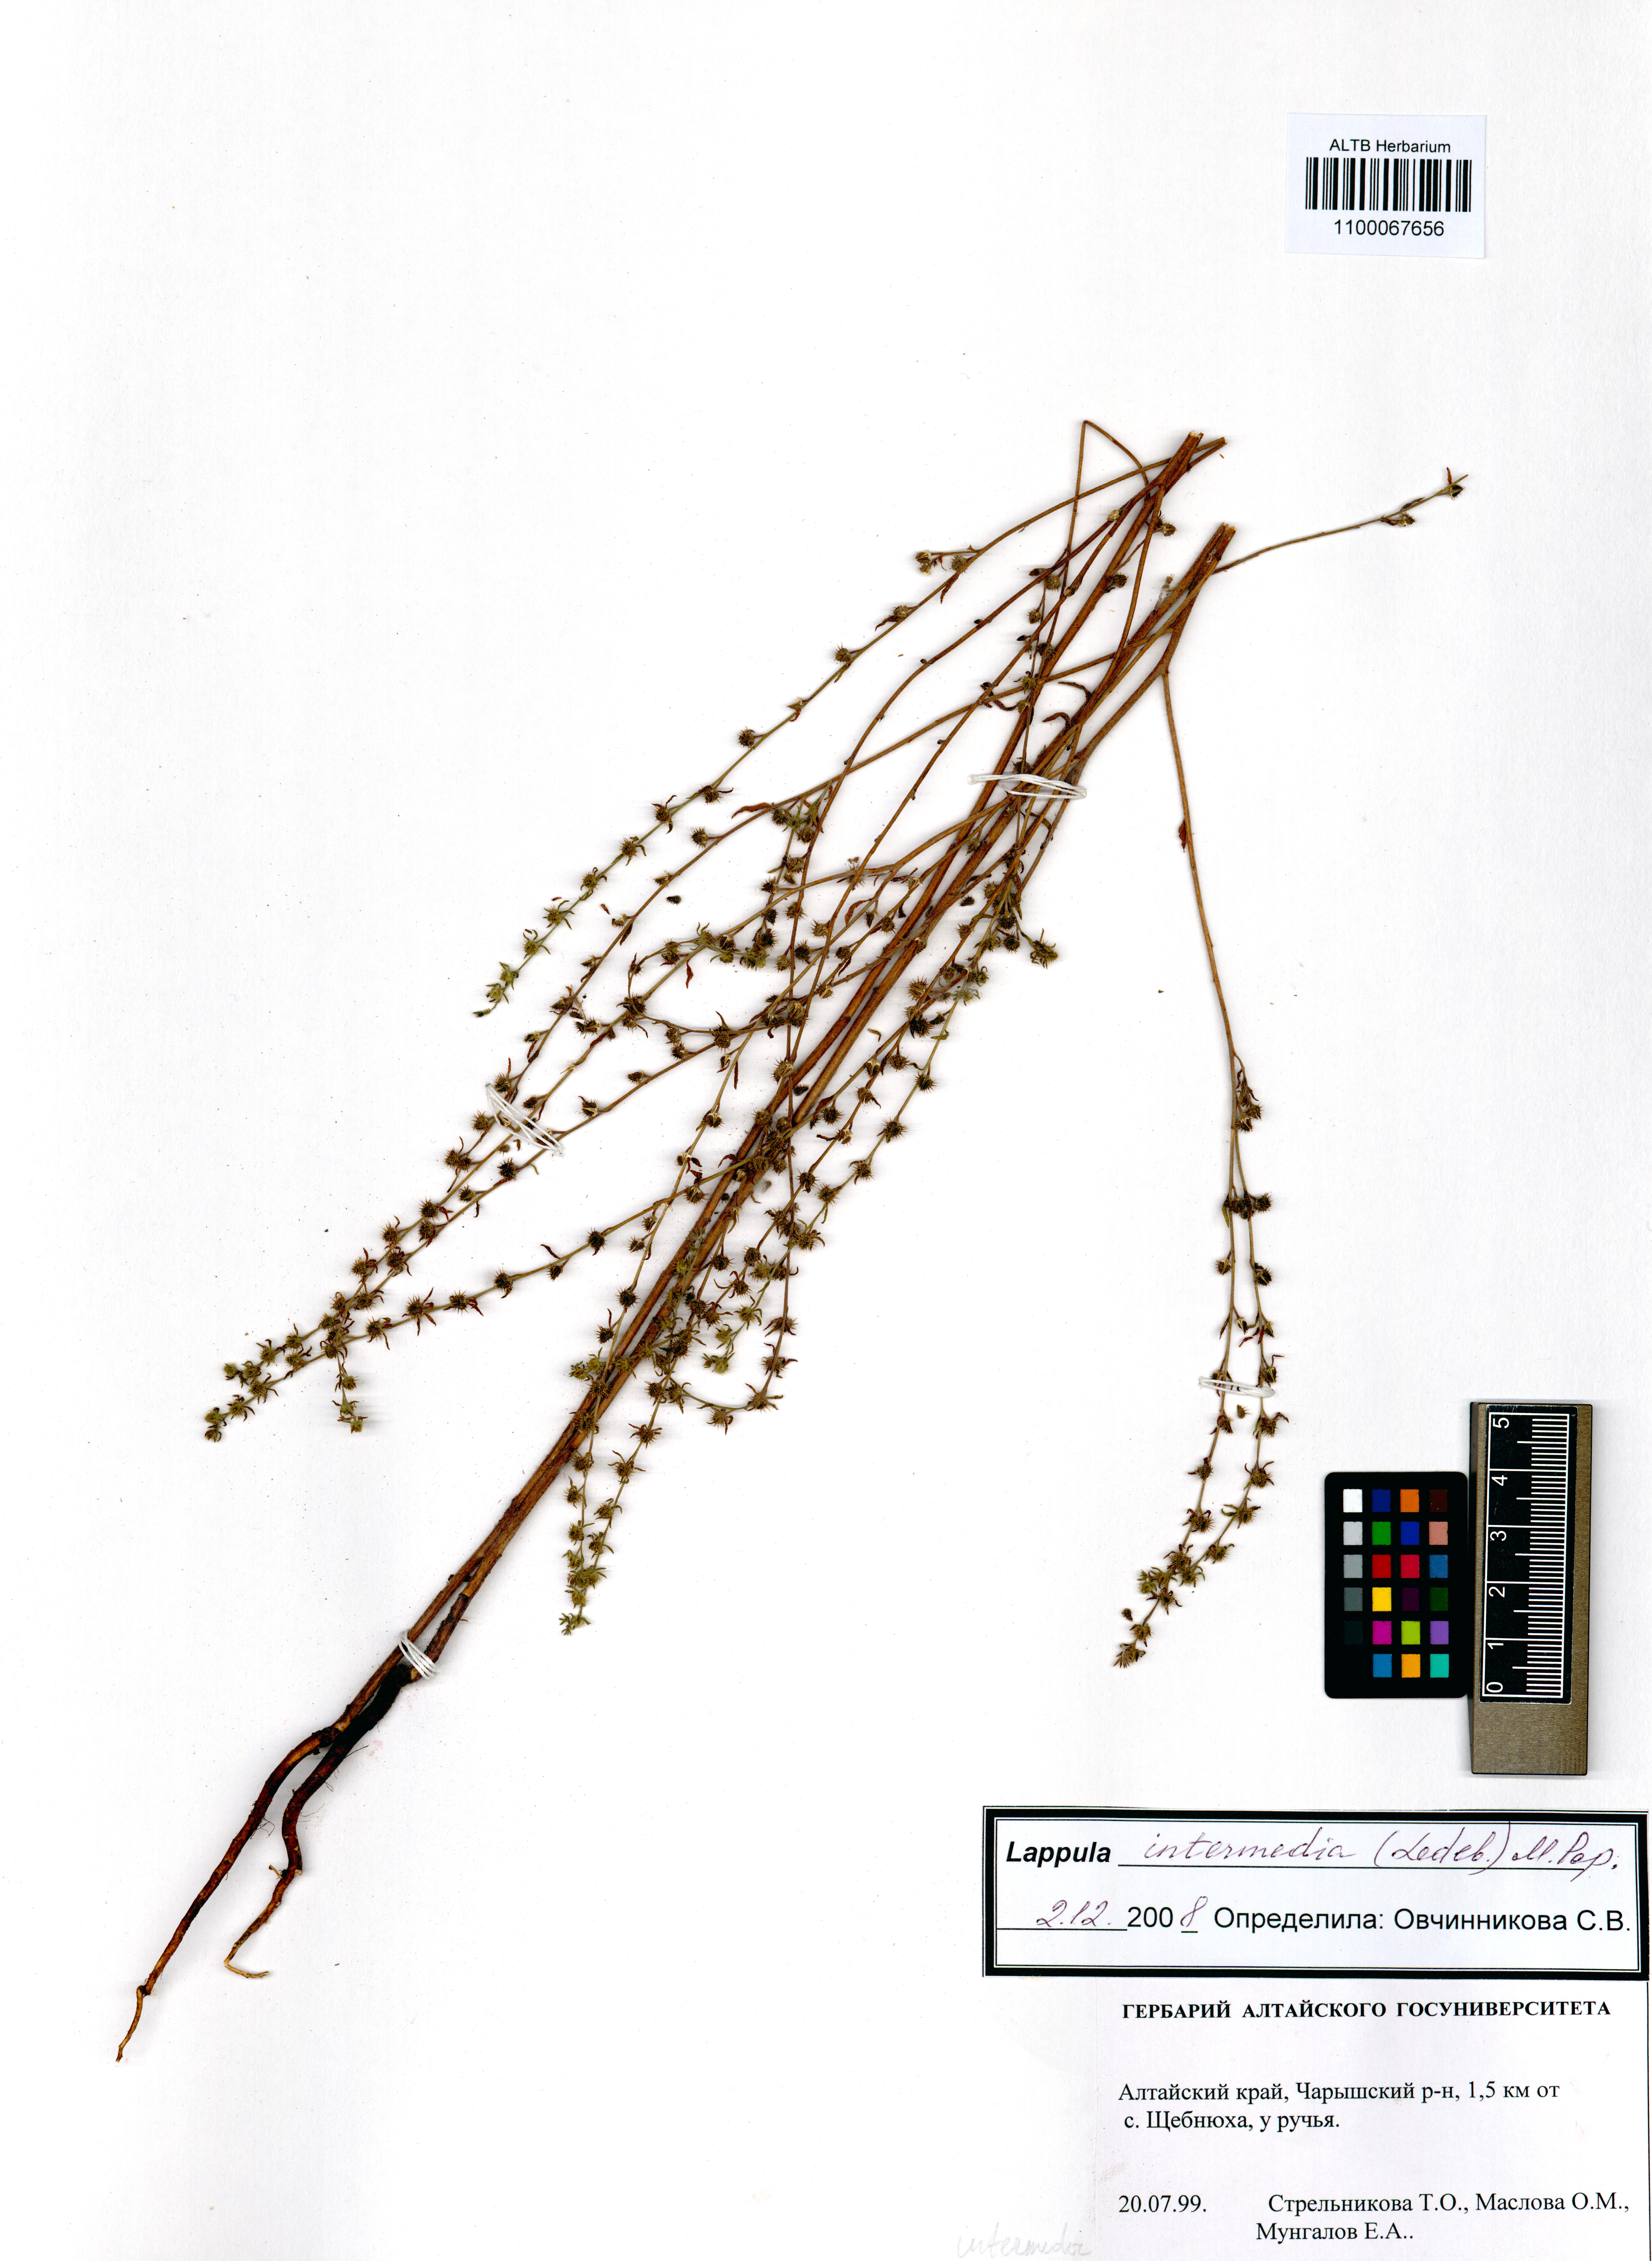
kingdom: Plantae
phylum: Tracheophyta
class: Magnoliopsida
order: Boraginales
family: Boraginaceae
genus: Lappula
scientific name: Lappula intermedia
